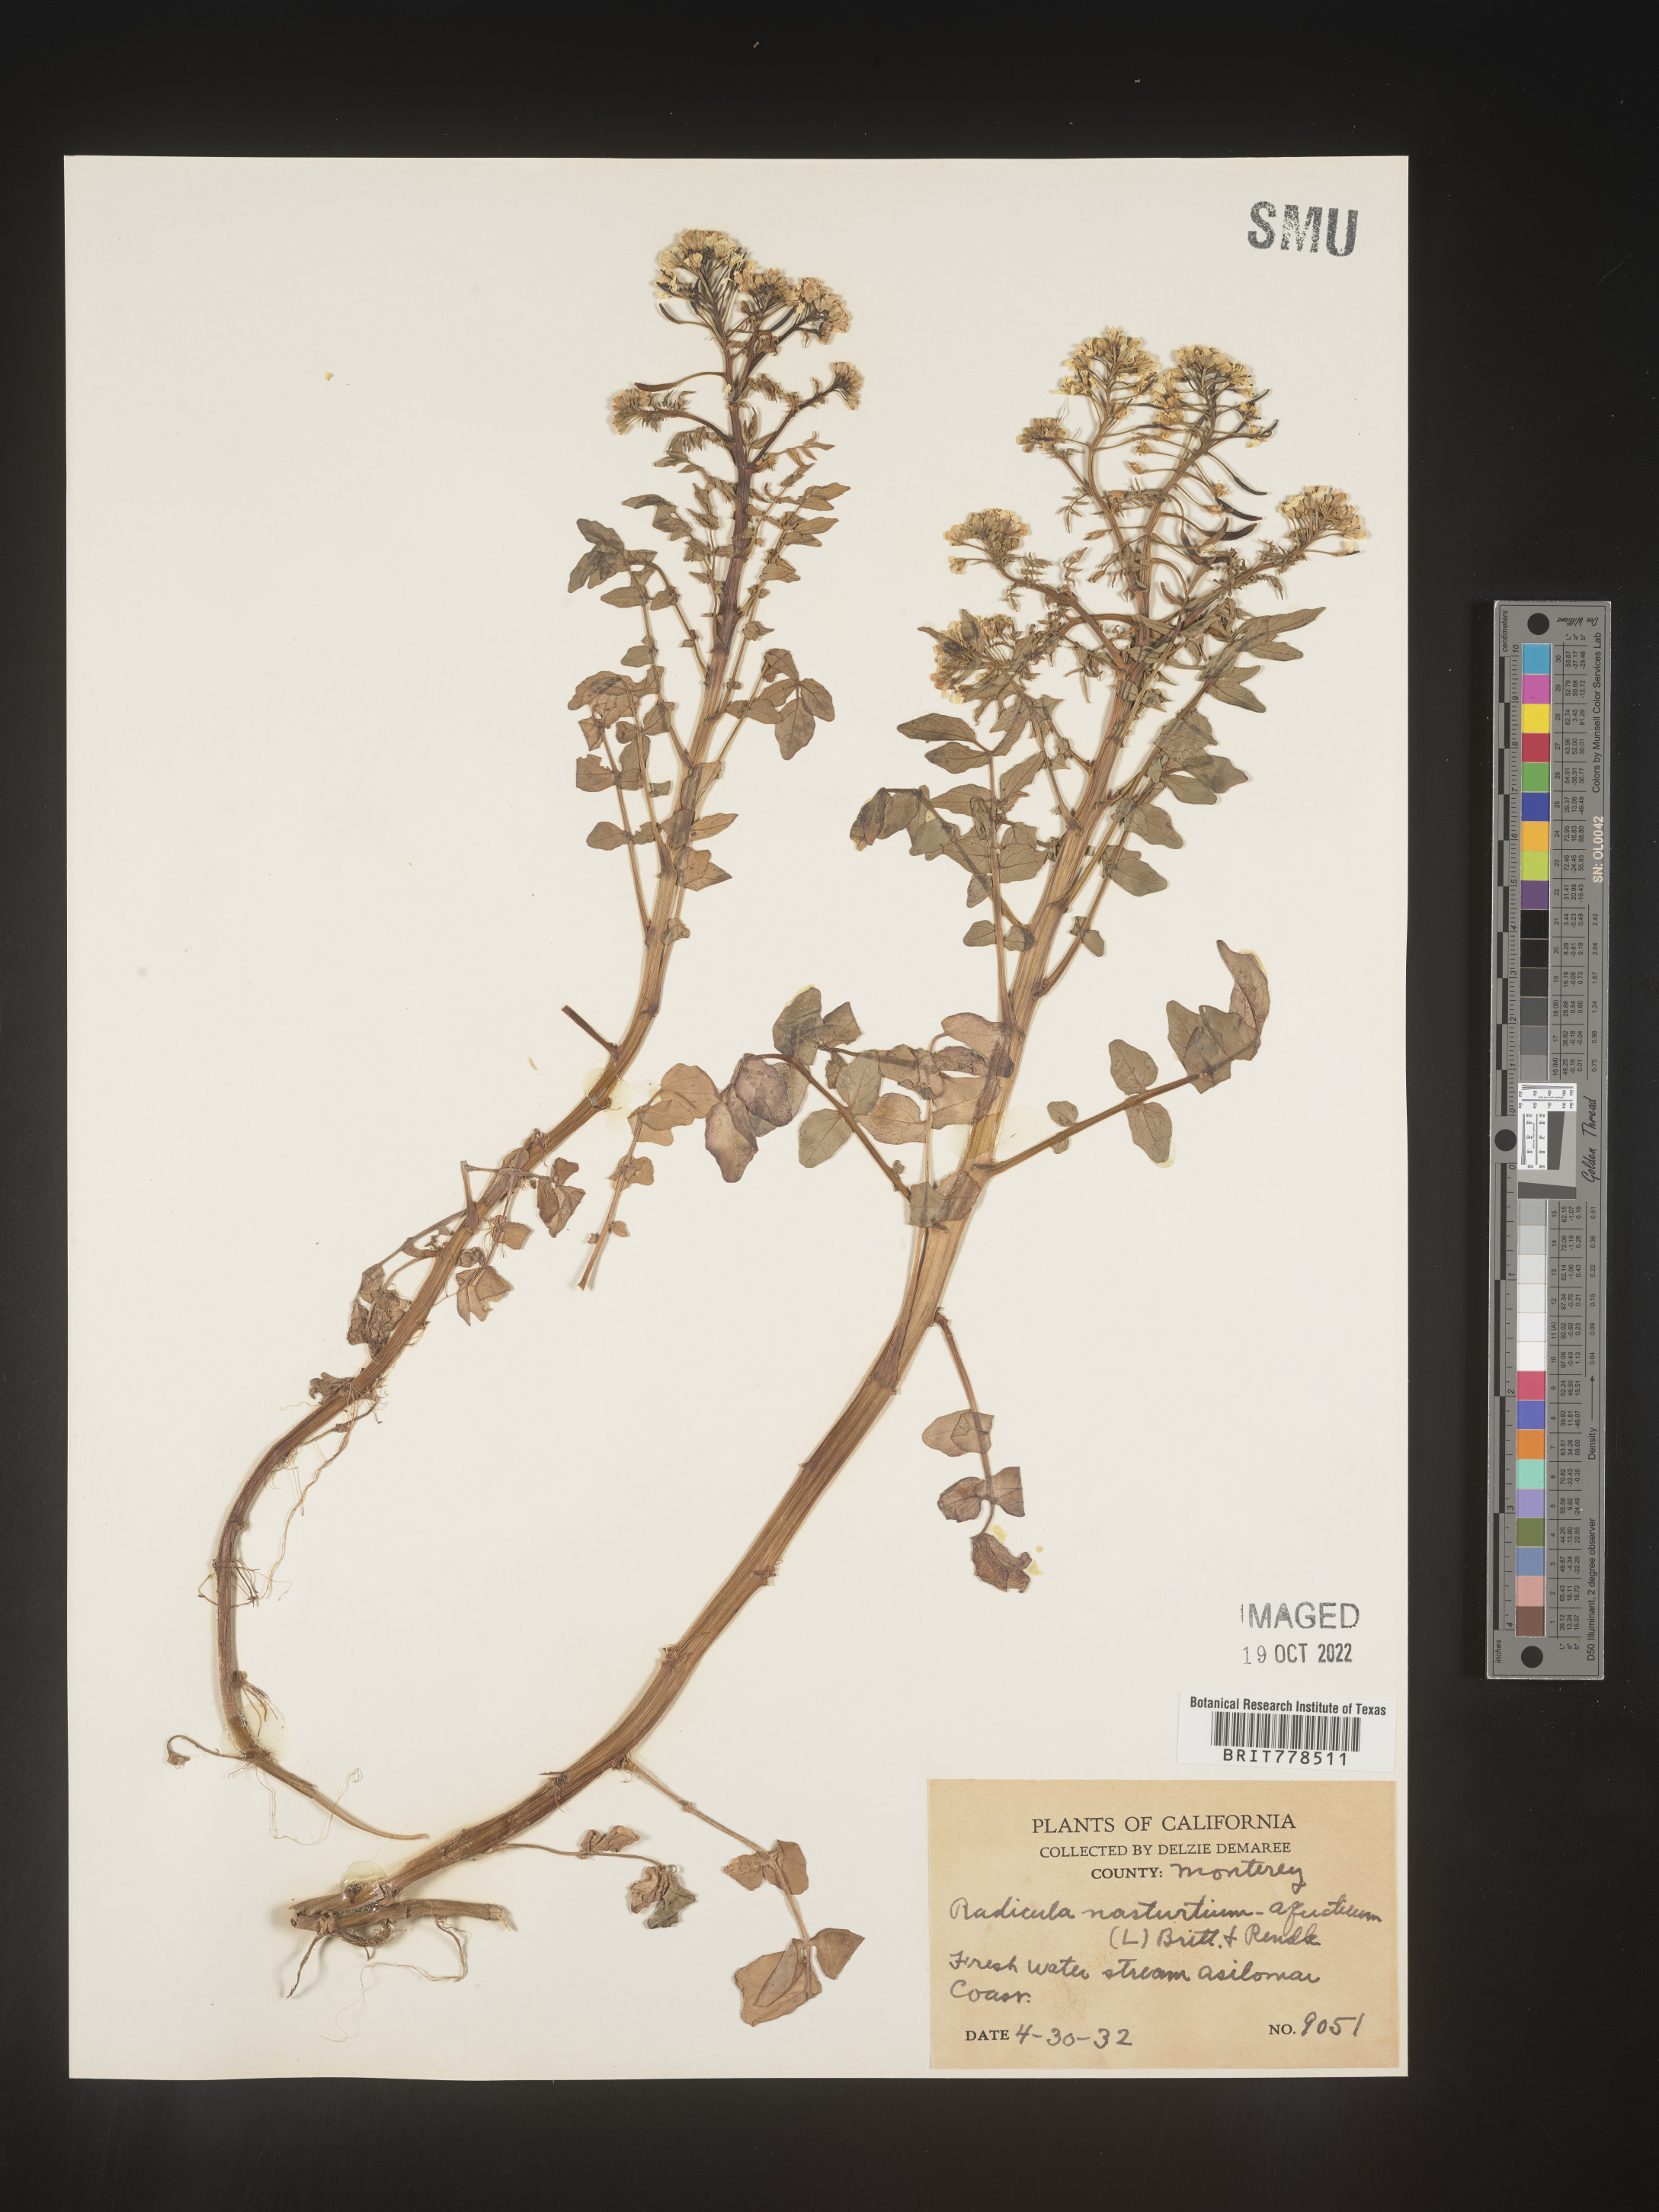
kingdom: Plantae
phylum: Tracheophyta
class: Magnoliopsida
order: Brassicales
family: Brassicaceae
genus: Nasturtium
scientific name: Nasturtium officinale
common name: Watercress
